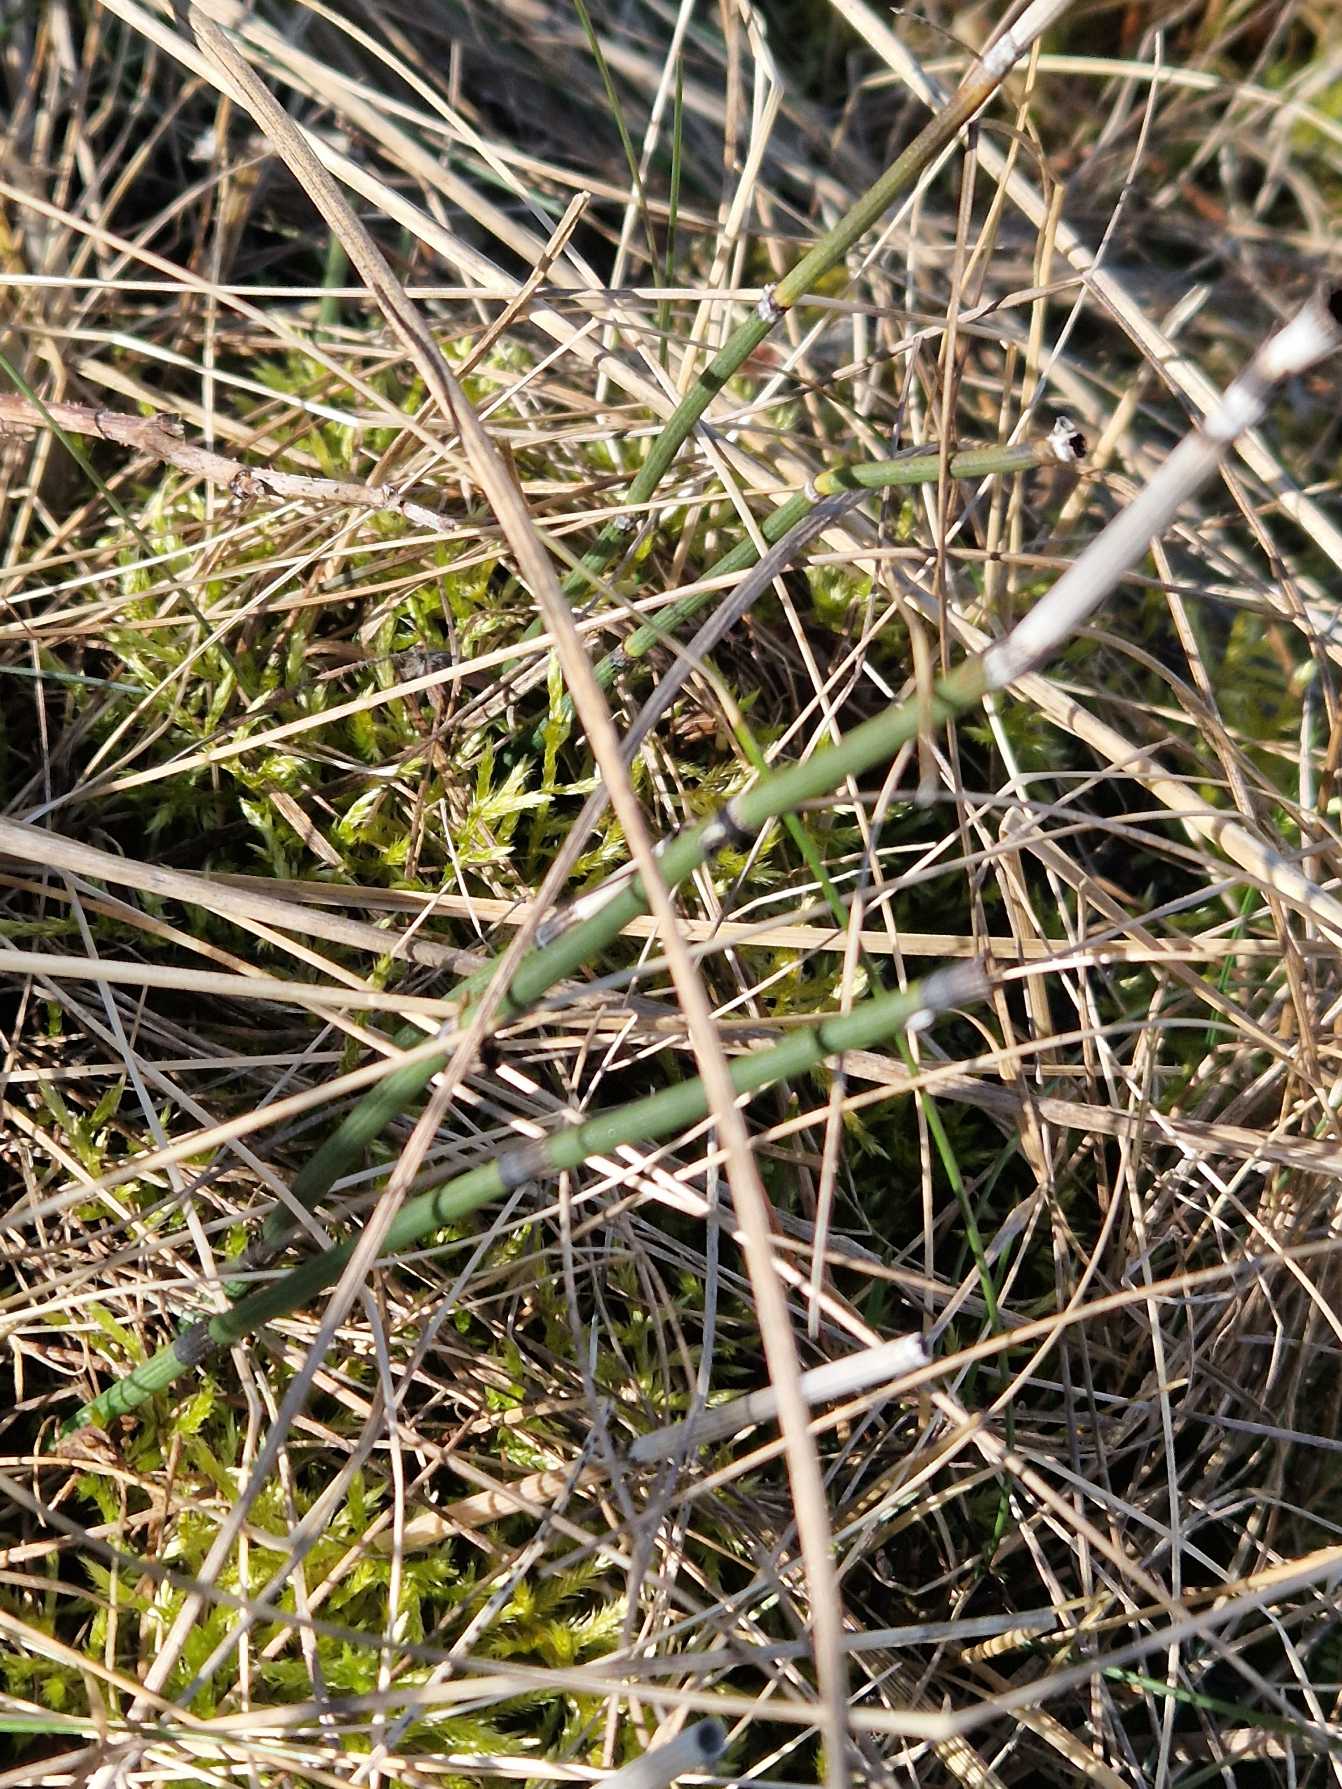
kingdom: Plantae
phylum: Tracheophyta
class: Polypodiopsida
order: Equisetales
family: Equisetaceae
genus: Equisetum
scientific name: Equisetum hyemale
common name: Skavgræs
